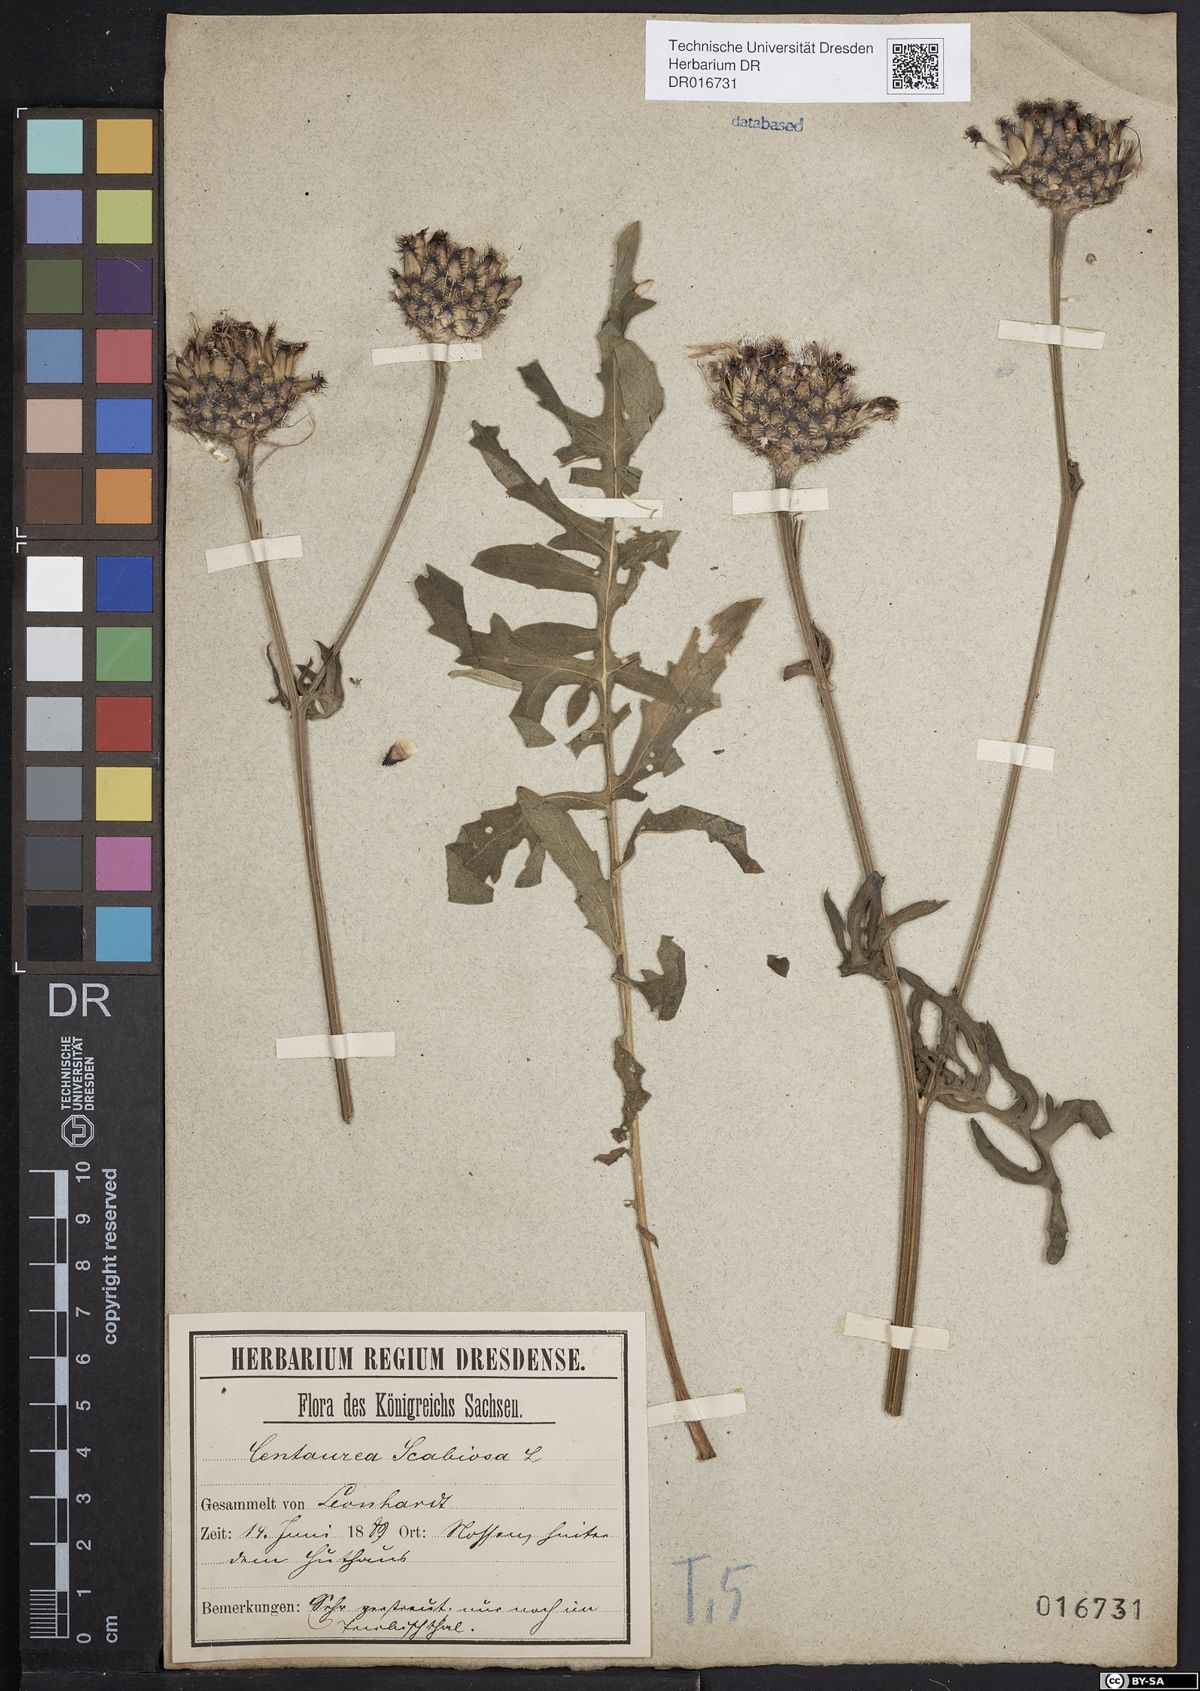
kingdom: Plantae
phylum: Tracheophyta
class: Magnoliopsida
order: Asterales
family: Asteraceae
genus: Centaurea
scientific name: Centaurea scabiosa
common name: Greater knapweed
